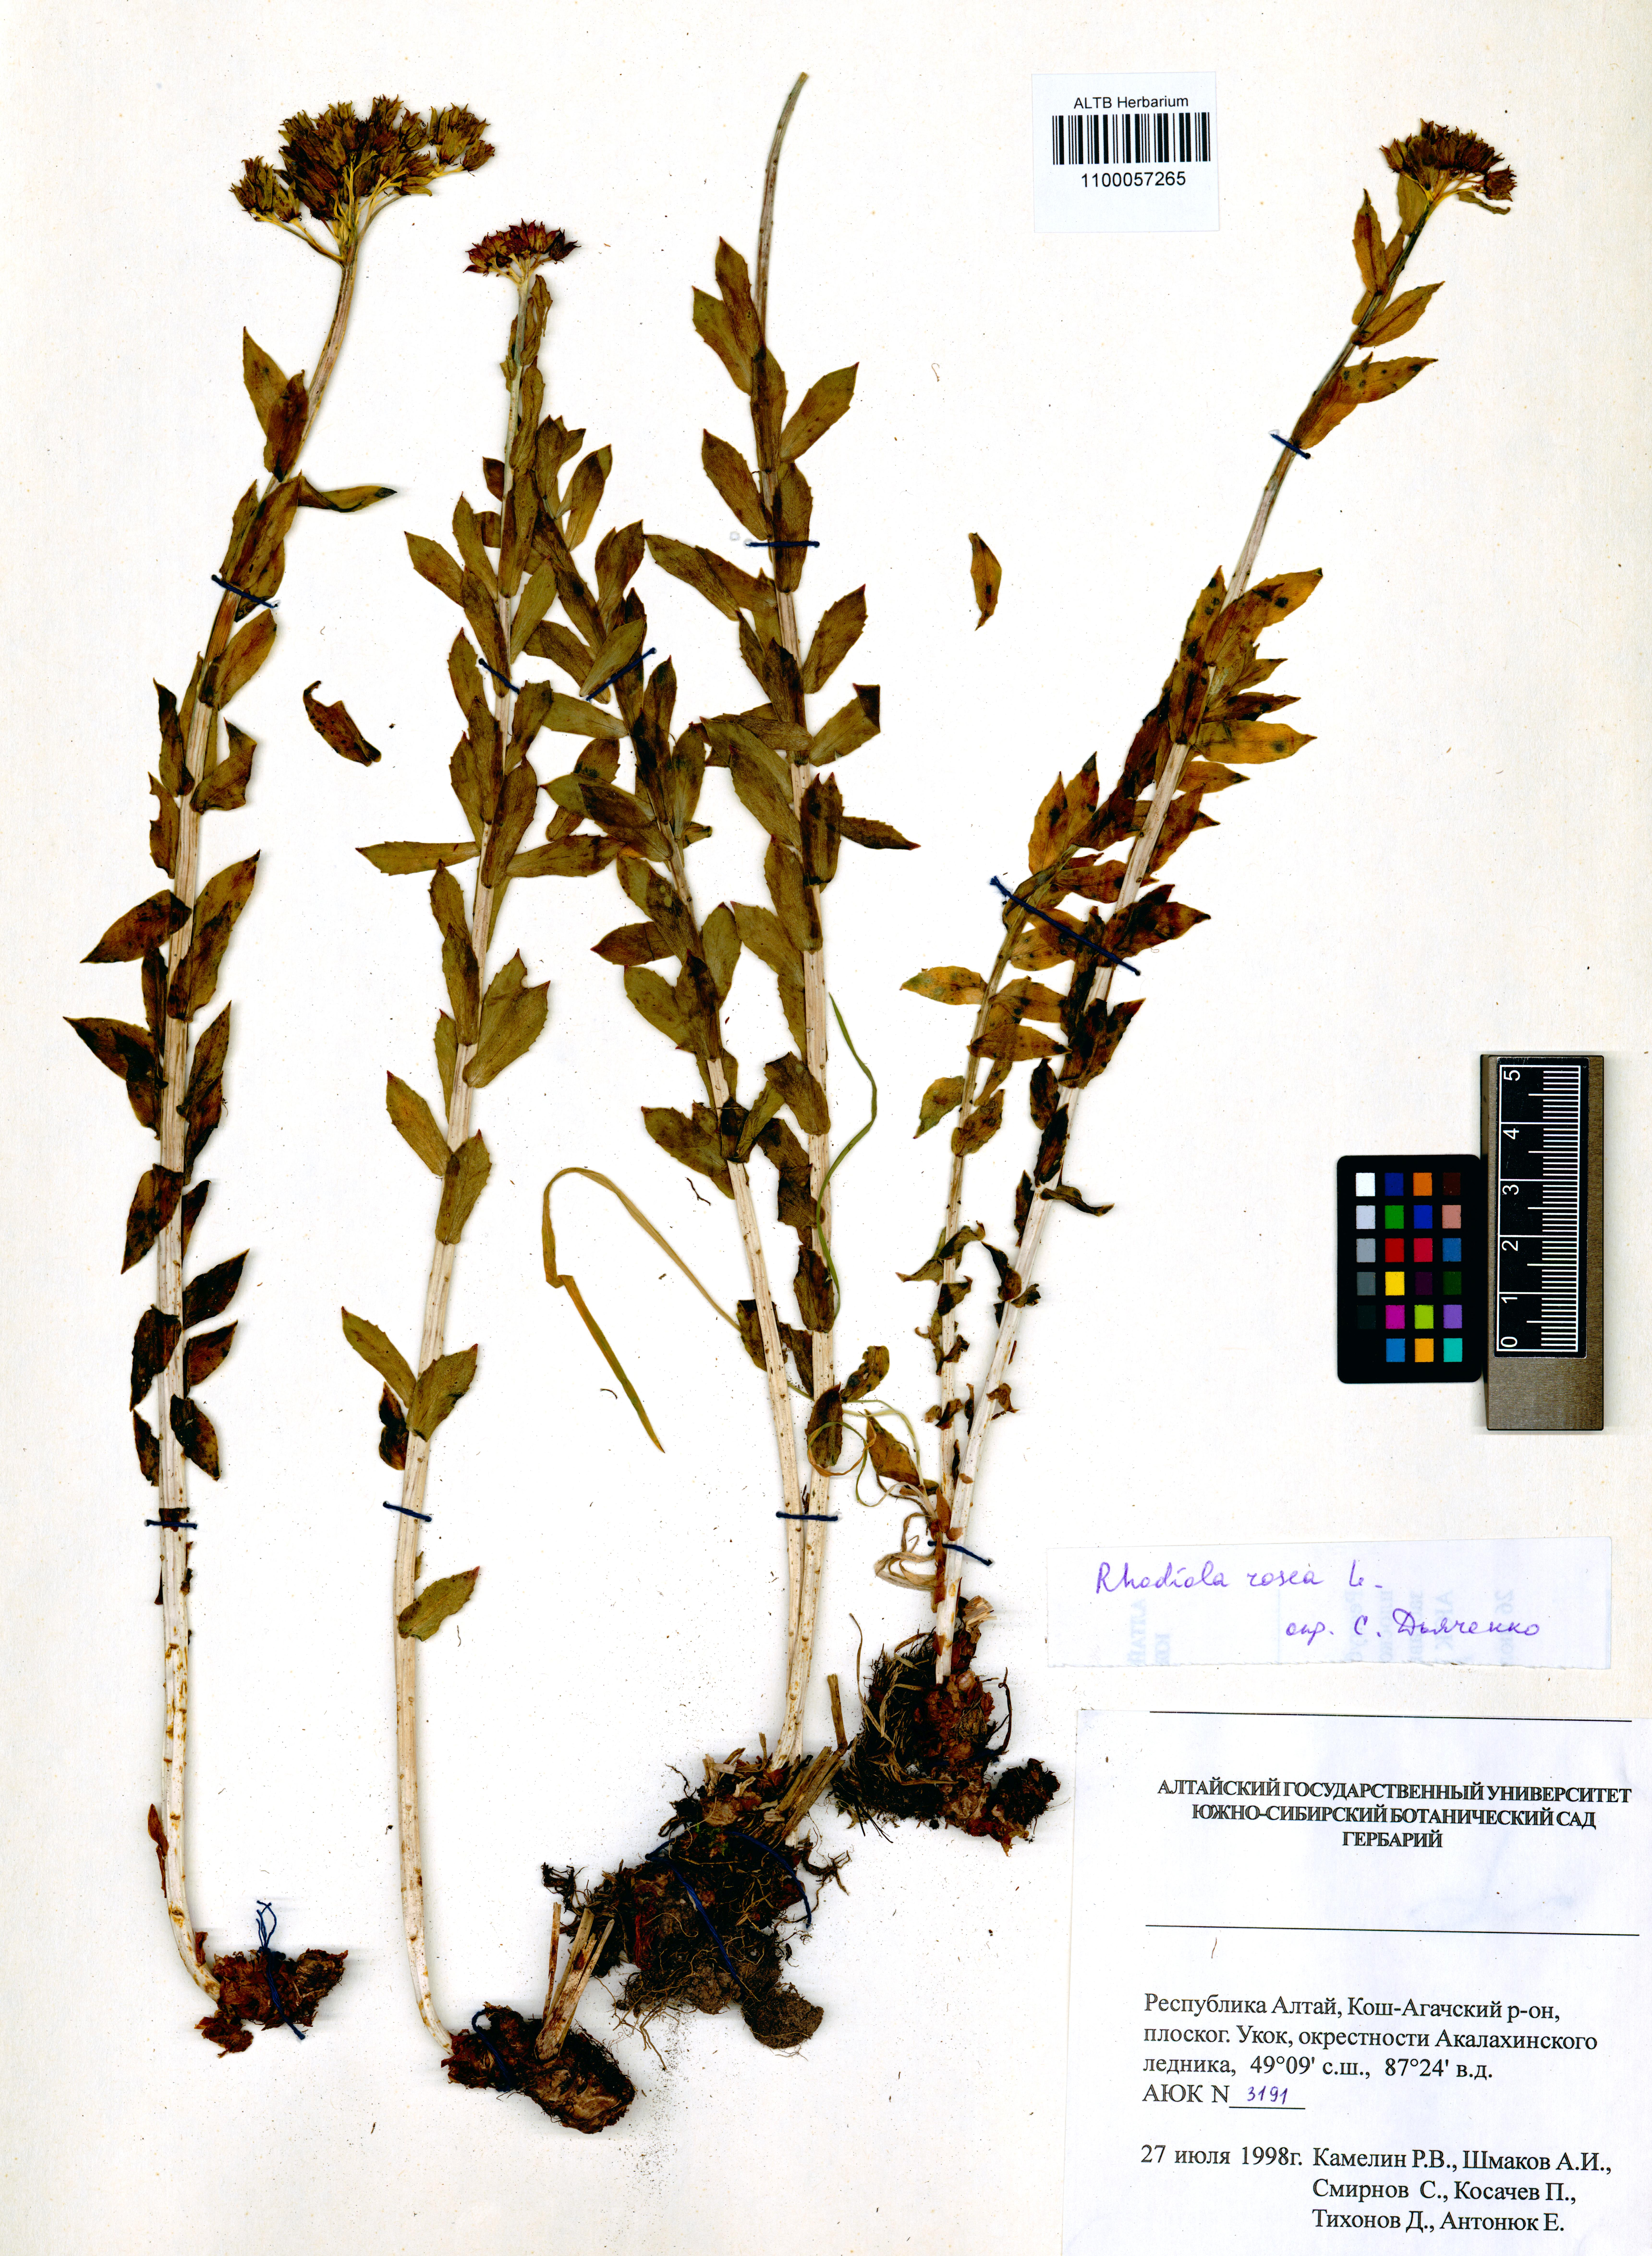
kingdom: Plantae
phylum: Tracheophyta
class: Magnoliopsida
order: Saxifragales
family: Crassulaceae
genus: Rhodiola
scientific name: Rhodiola rosea
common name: Roseroot
